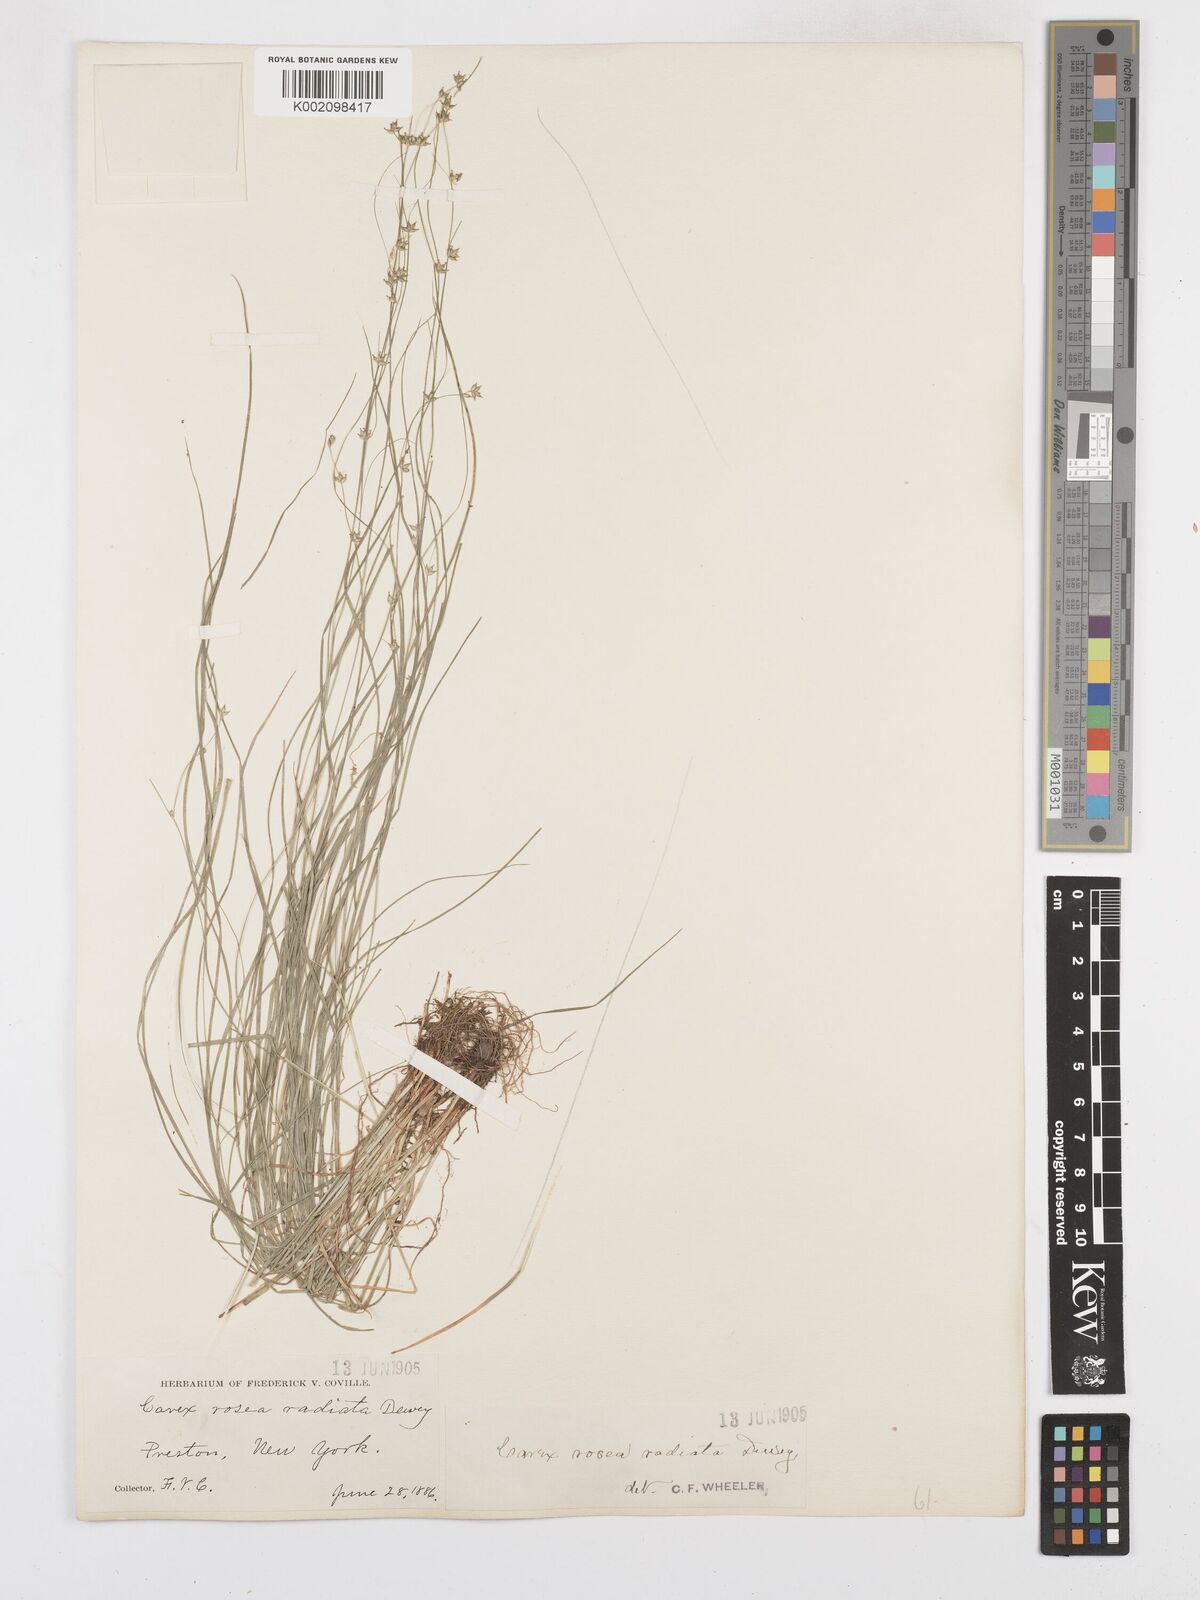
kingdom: Plantae
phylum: Tracheophyta
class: Liliopsida
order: Poales
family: Cyperaceae
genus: Carex
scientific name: Carex
